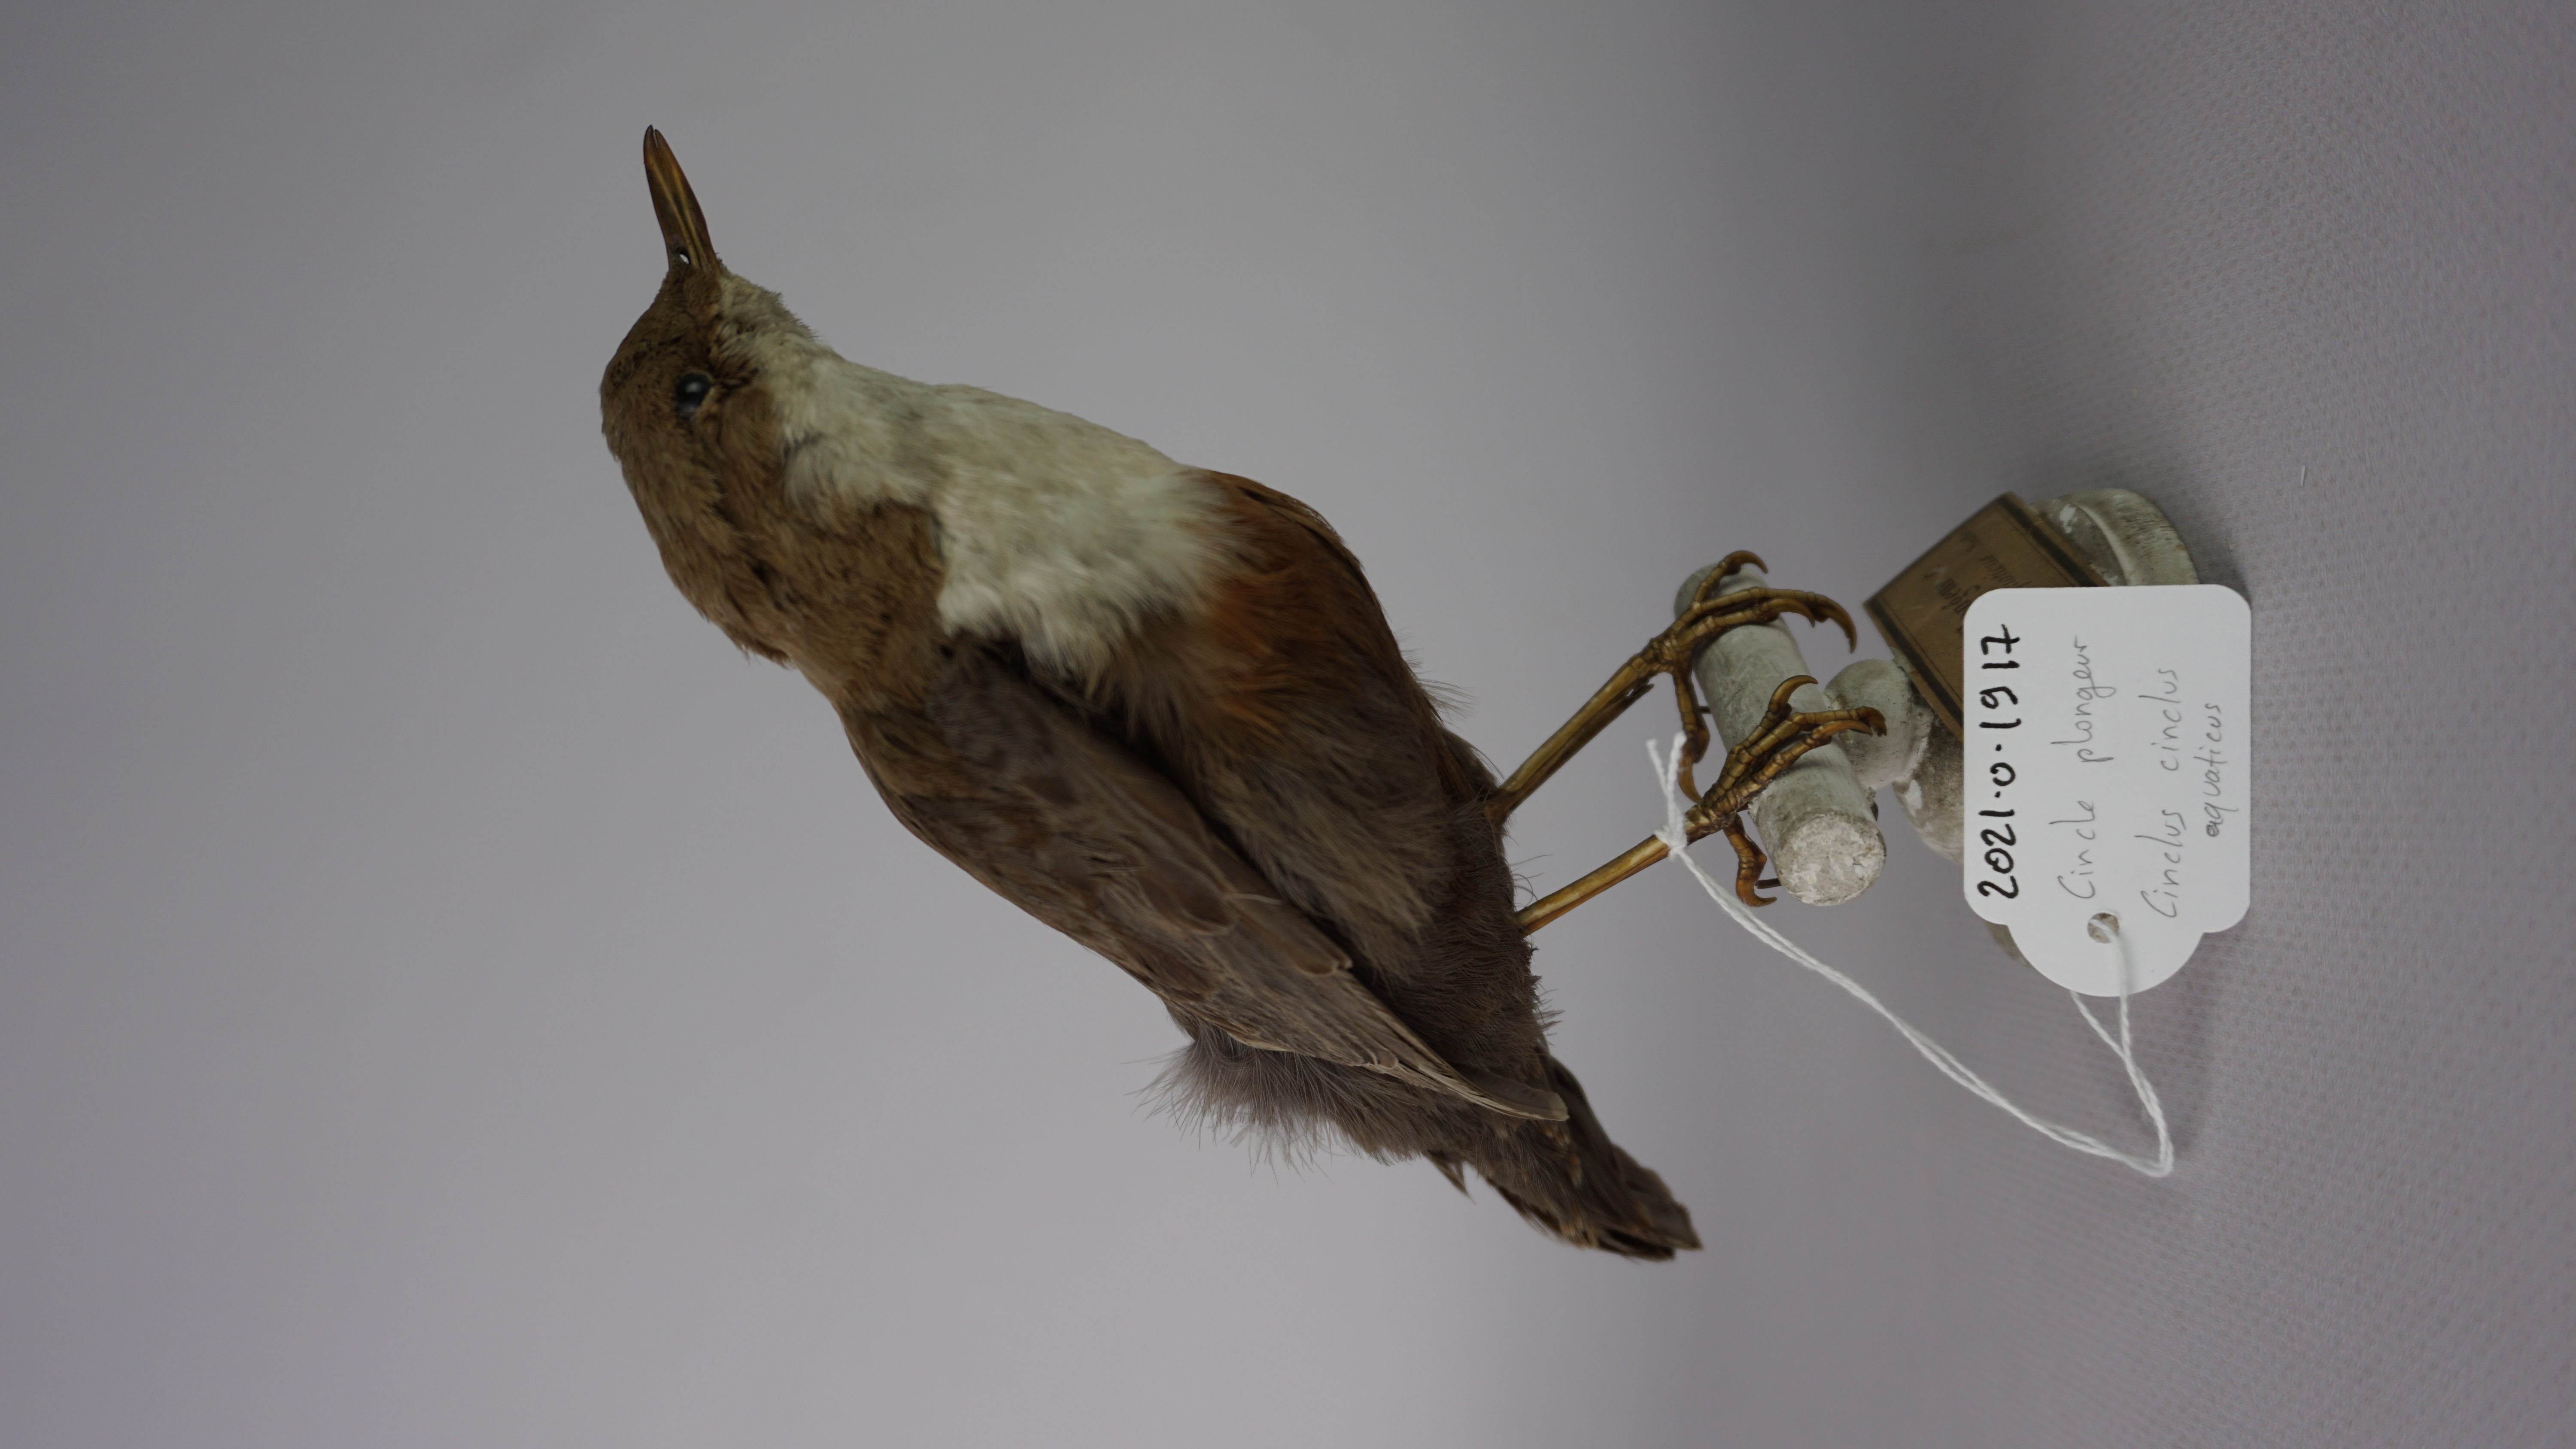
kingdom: Animalia
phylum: Chordata
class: Aves
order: Passeriformes
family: Cinclidae
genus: Cinclus
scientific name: Cinclus cinclus
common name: White-throated dipper
